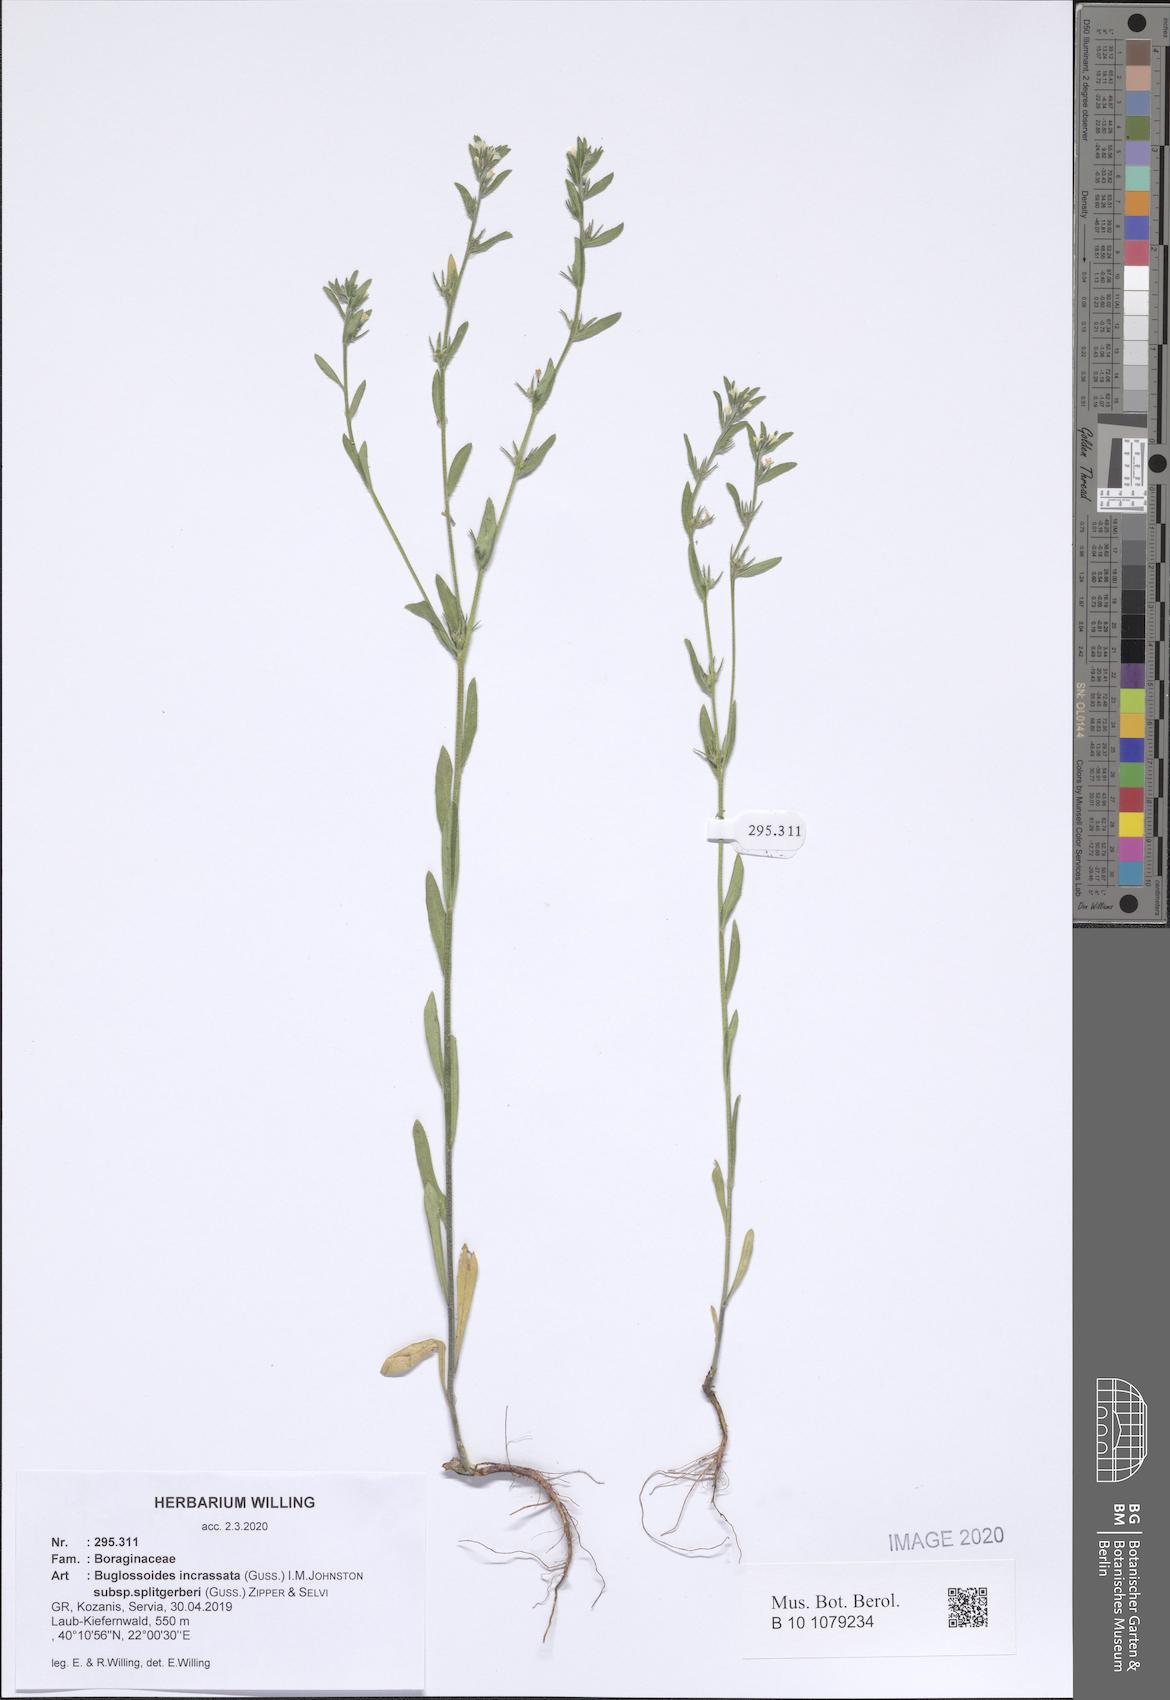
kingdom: Plantae
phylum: Tracheophyta
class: Magnoliopsida
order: Boraginales
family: Boraginaceae
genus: Buglossoides
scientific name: Buglossoides incrassata
